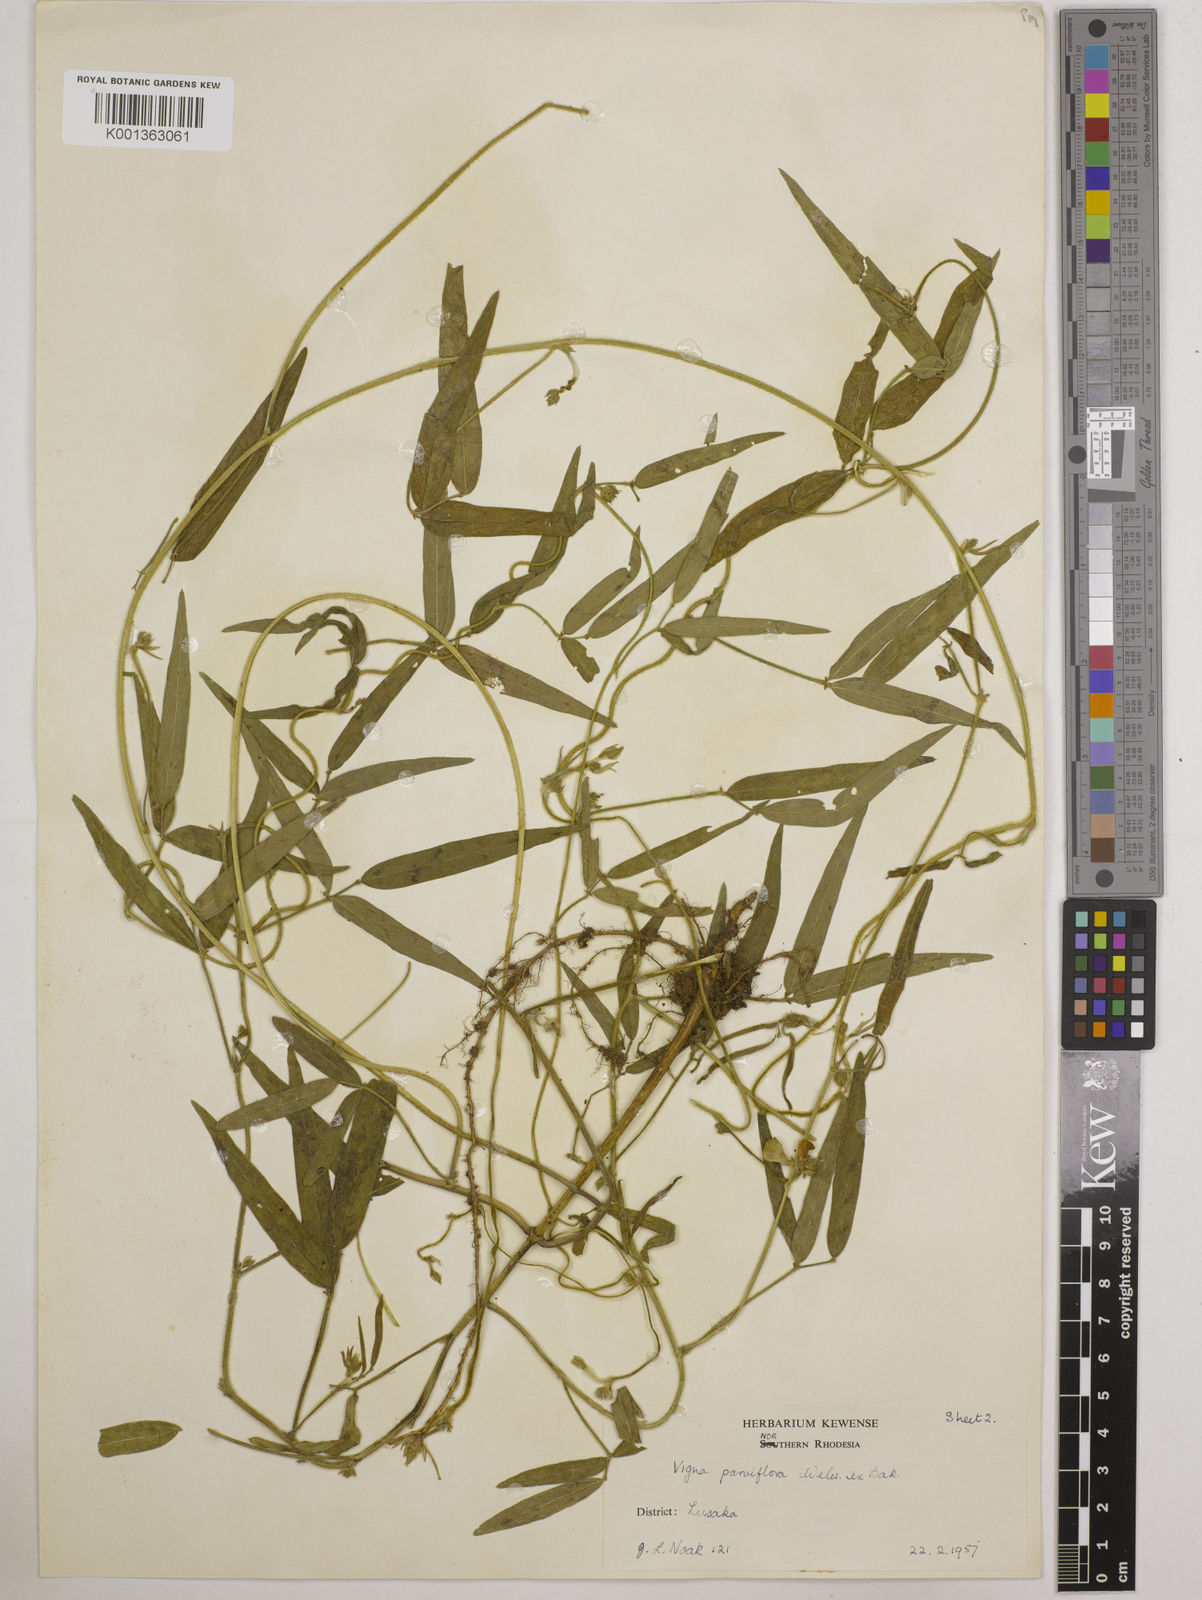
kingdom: Plantae
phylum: Tracheophyta
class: Magnoliopsida
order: Fabales
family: Fabaceae
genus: Vigna
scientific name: Vigna
